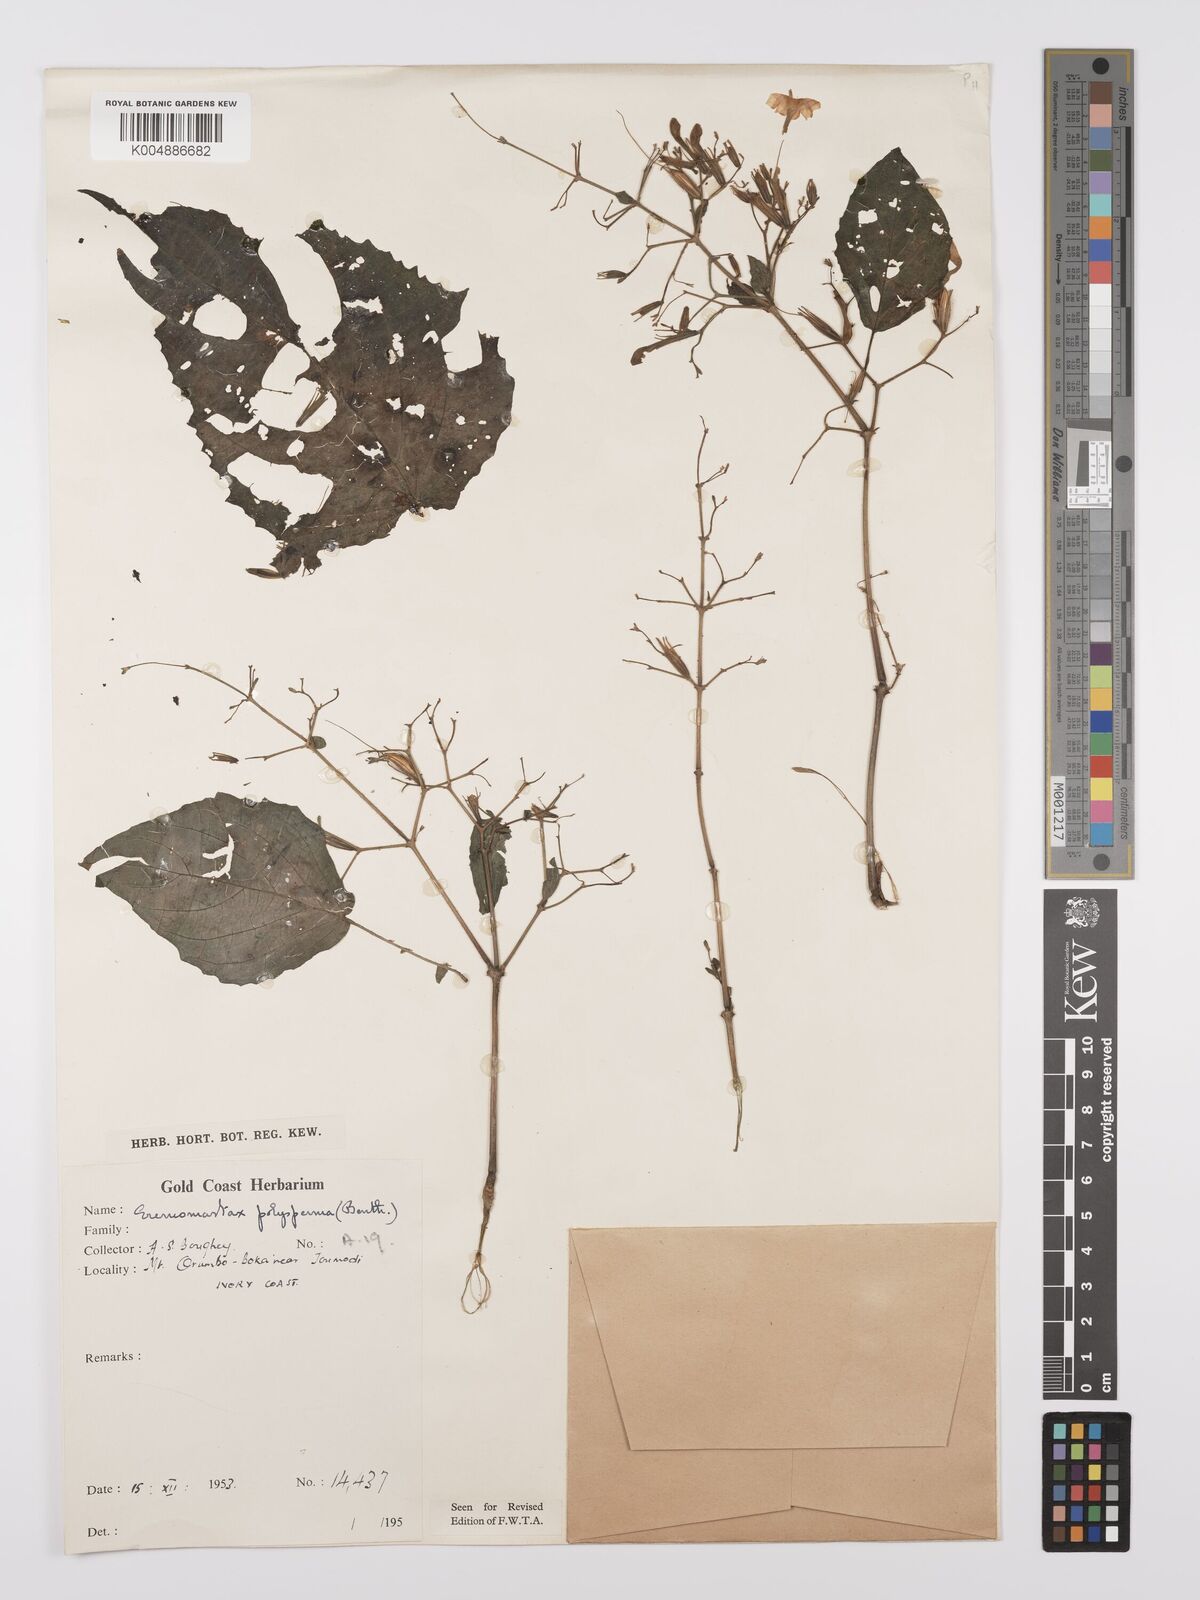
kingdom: Plantae
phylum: Tracheophyta
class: Magnoliopsida
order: Lamiales
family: Acanthaceae
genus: Eremomastax
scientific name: Eremomastax speciosa
